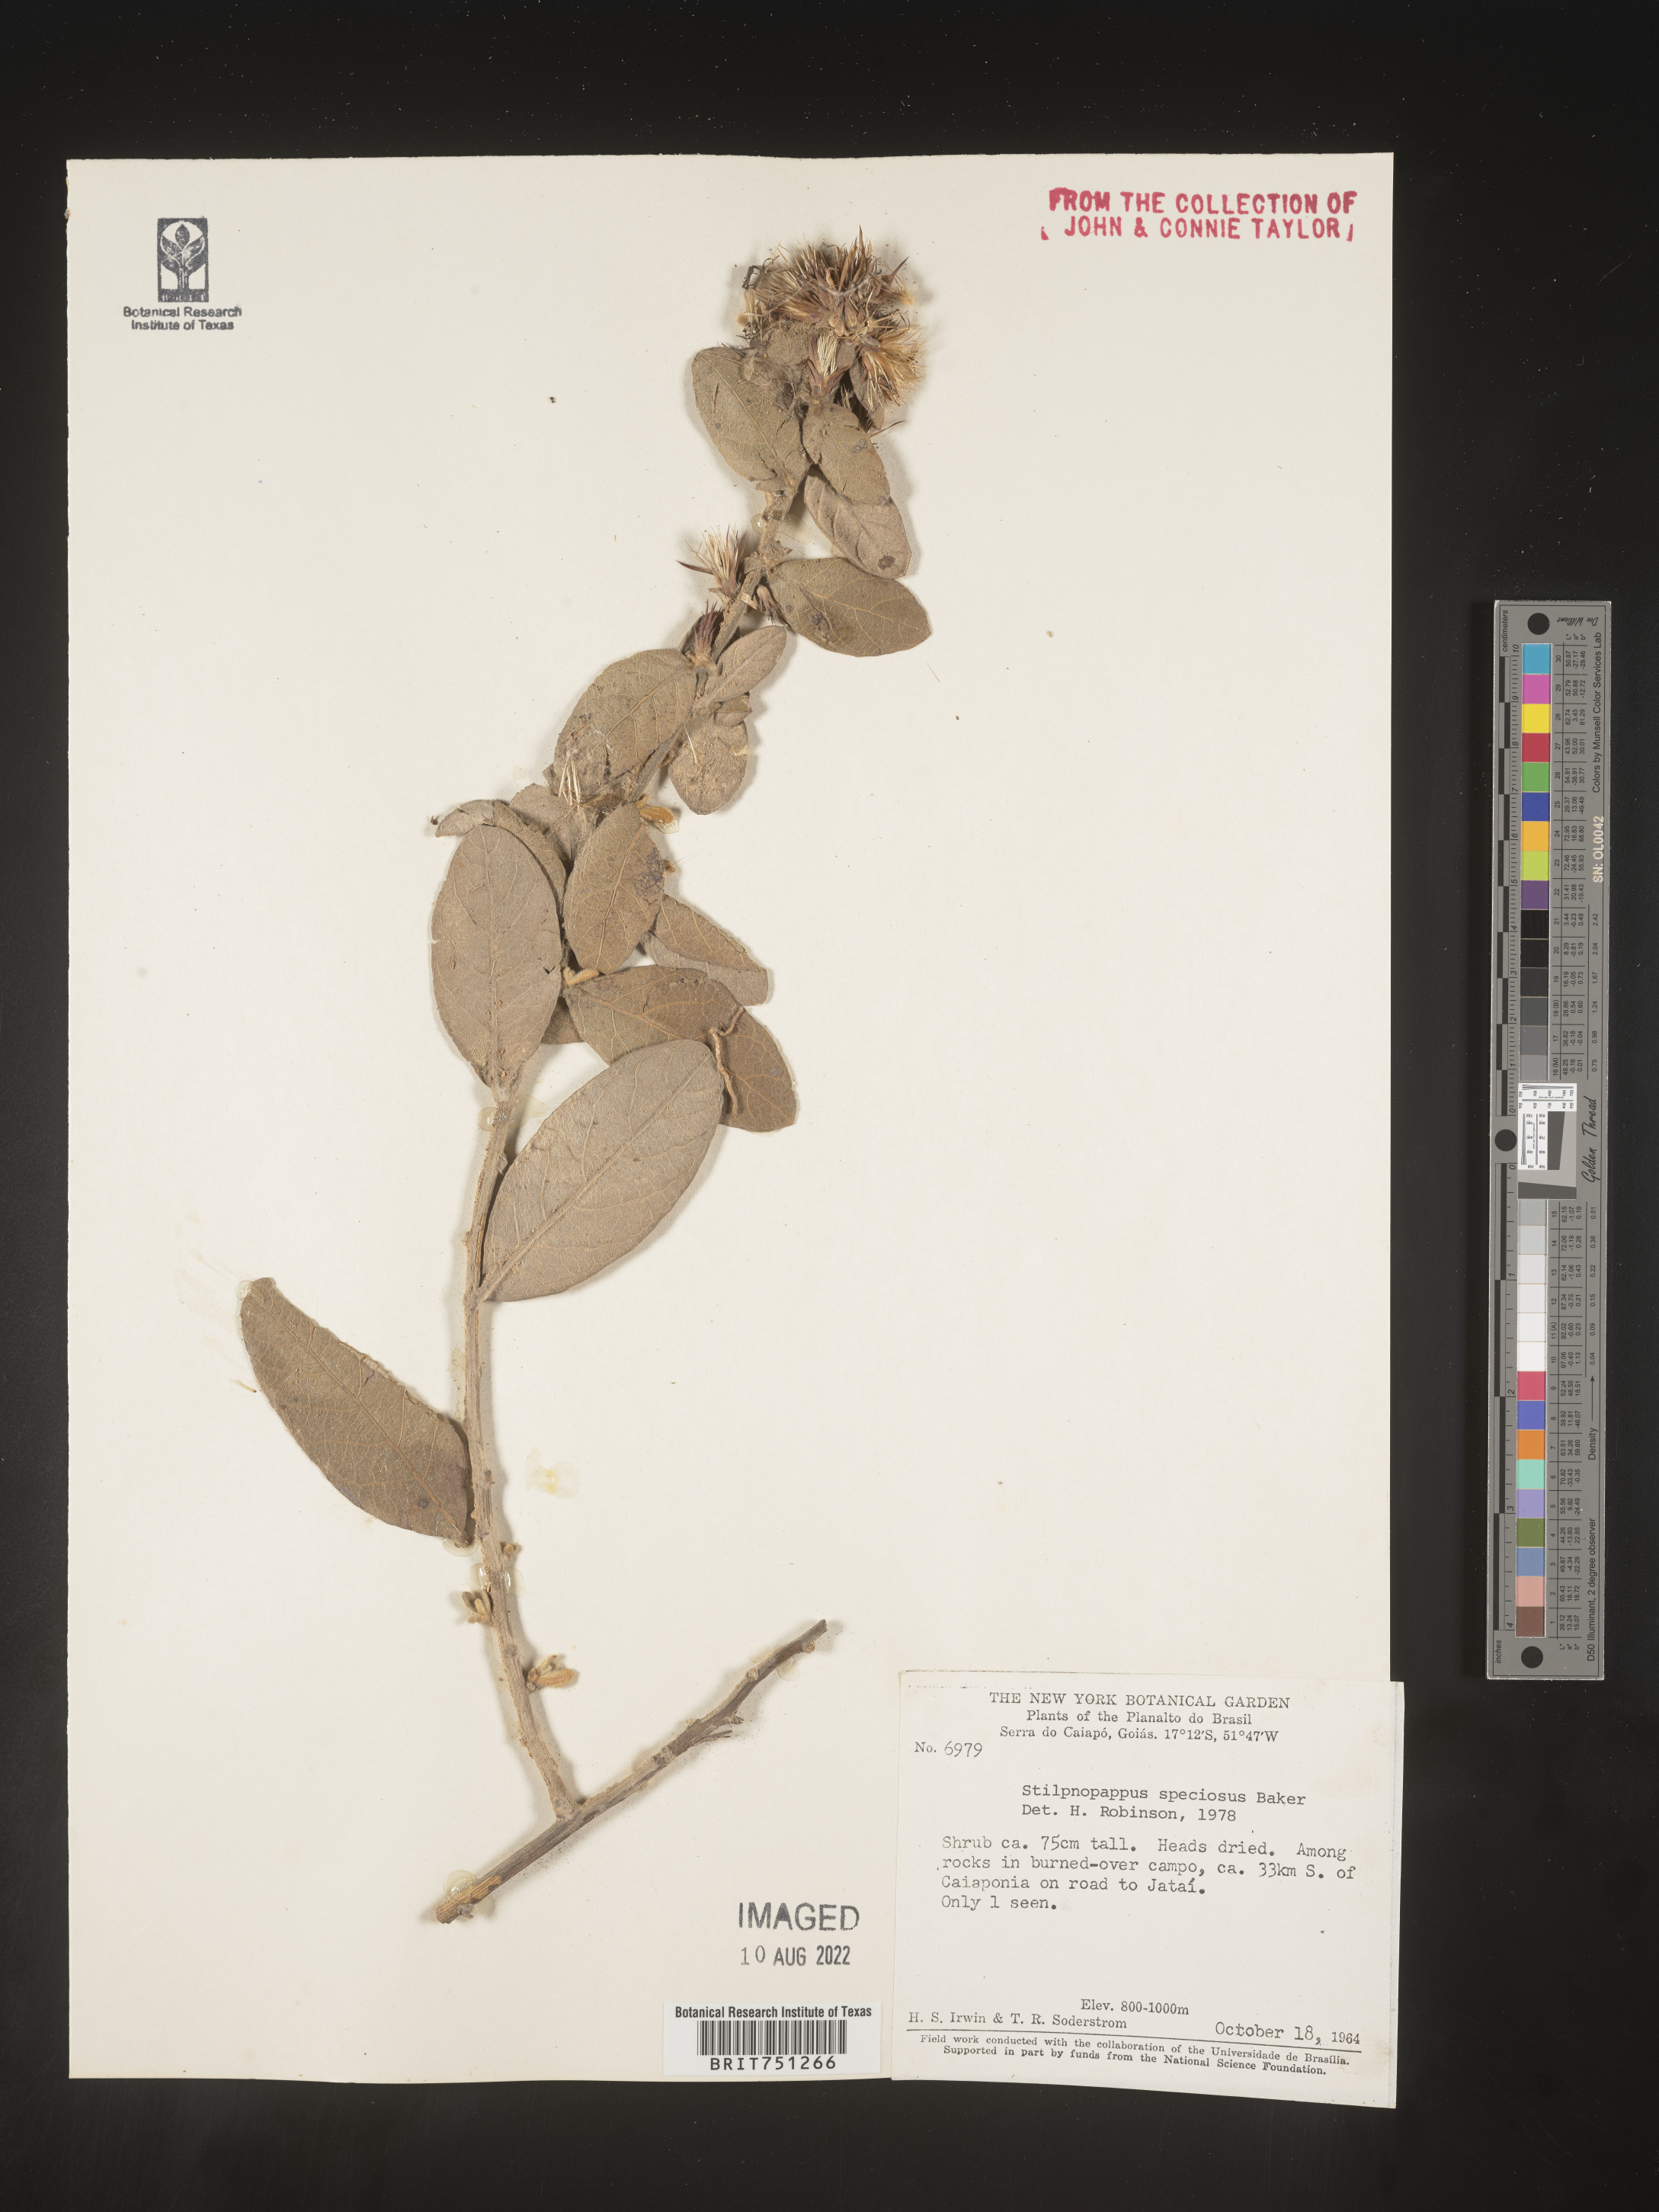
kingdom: Plantae
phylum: Tracheophyta
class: Magnoliopsida
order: Asterales
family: Asteraceae
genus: Stilpnopappus
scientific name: Stilpnopappus
